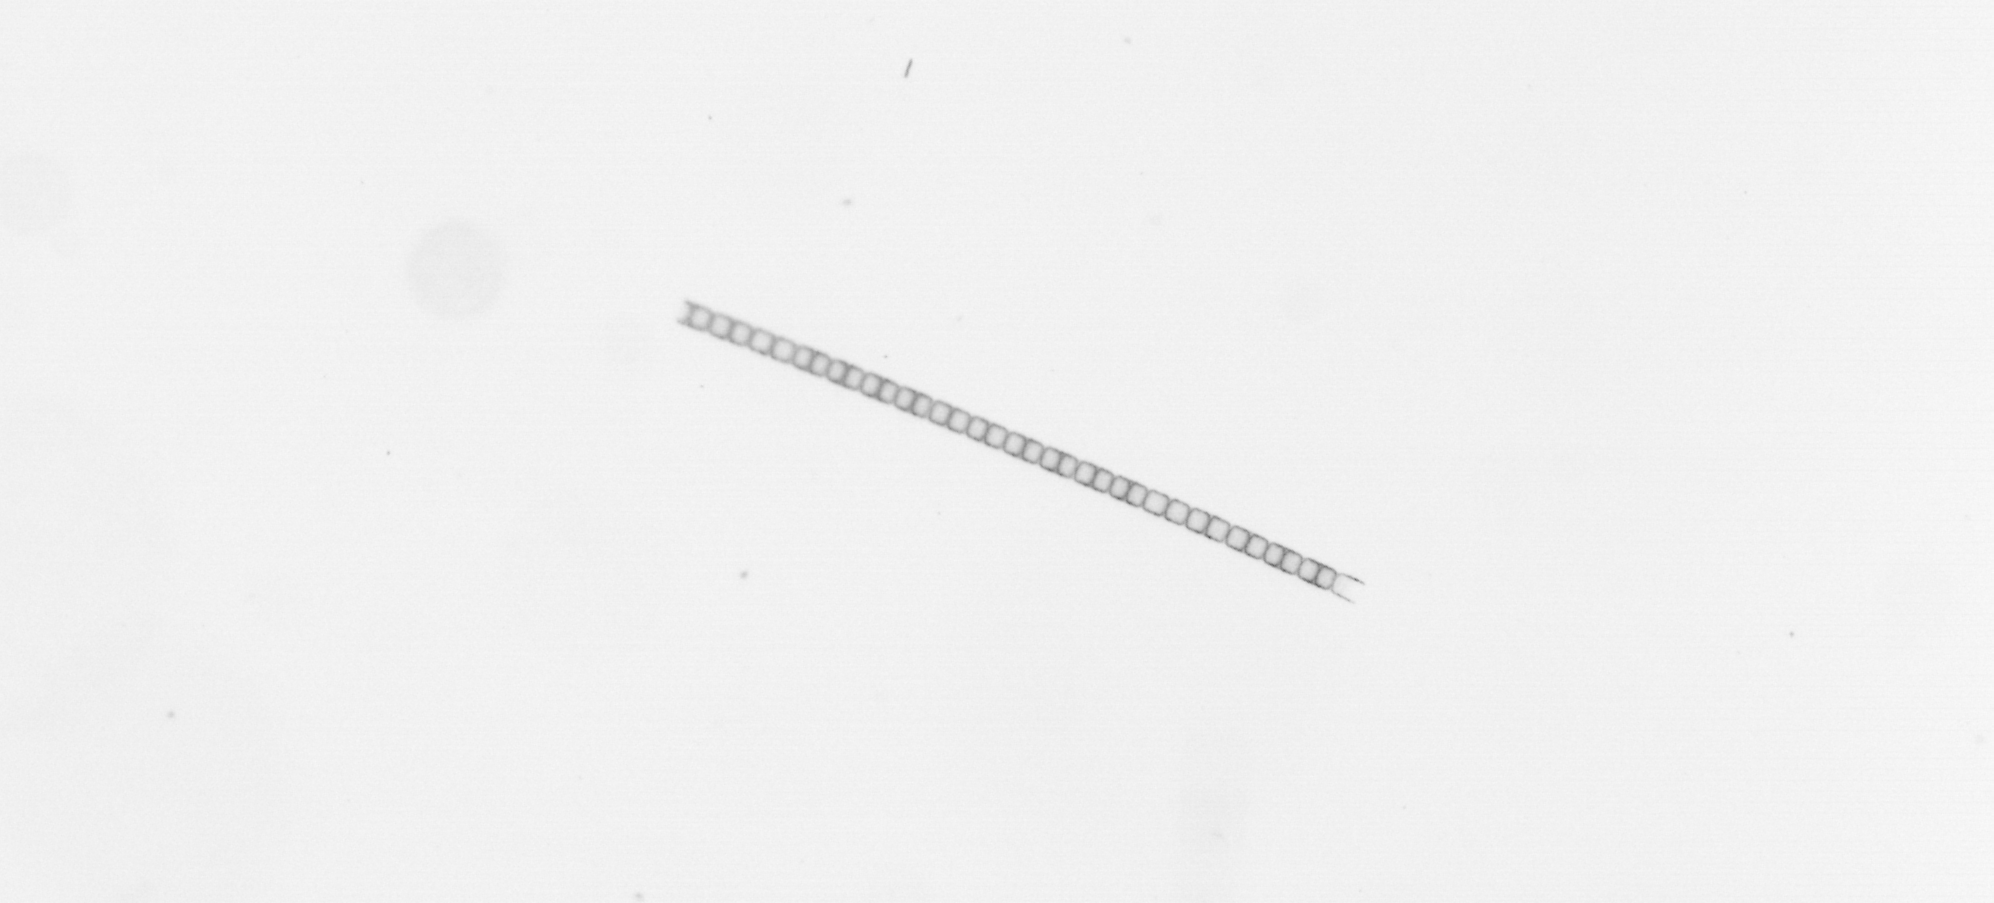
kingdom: Chromista
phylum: Ochrophyta
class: Bacillariophyceae
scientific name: Bacillariophyceae
